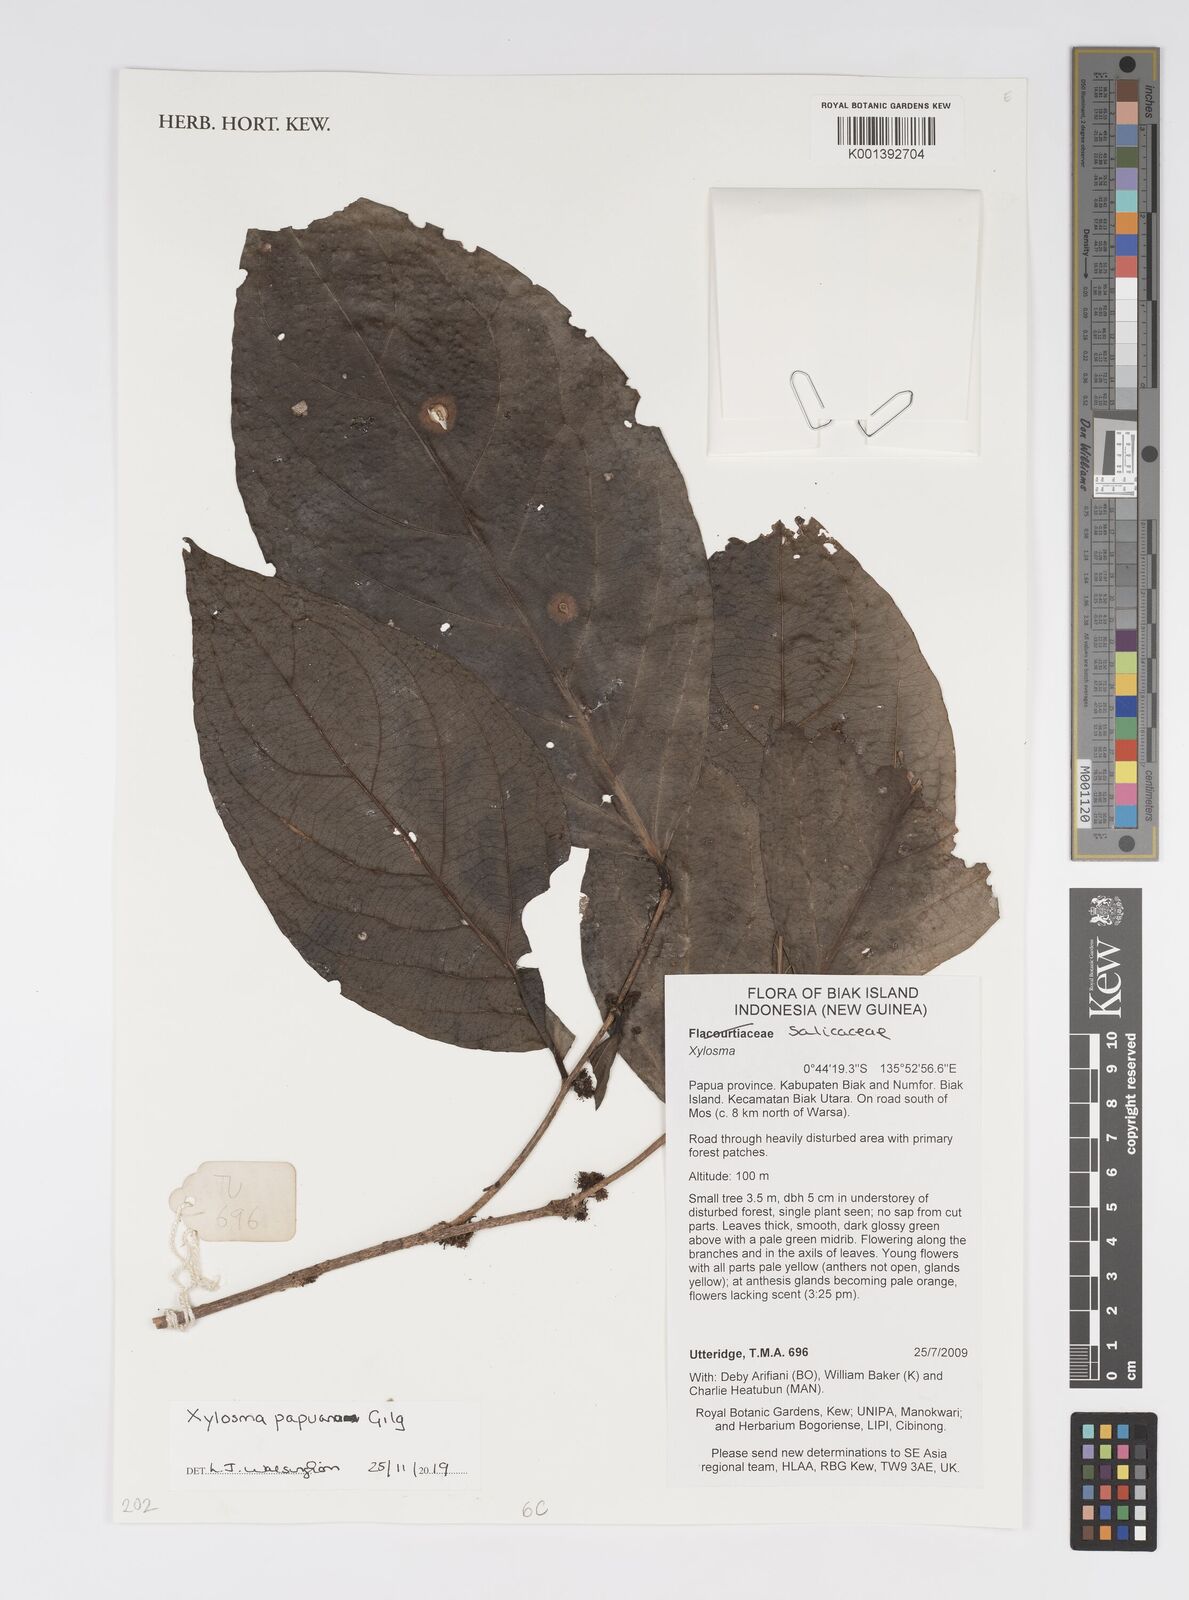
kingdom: Plantae
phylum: Tracheophyta
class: Magnoliopsida
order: Malpighiales
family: Salicaceae
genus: Xylosma
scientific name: Xylosma papuana
